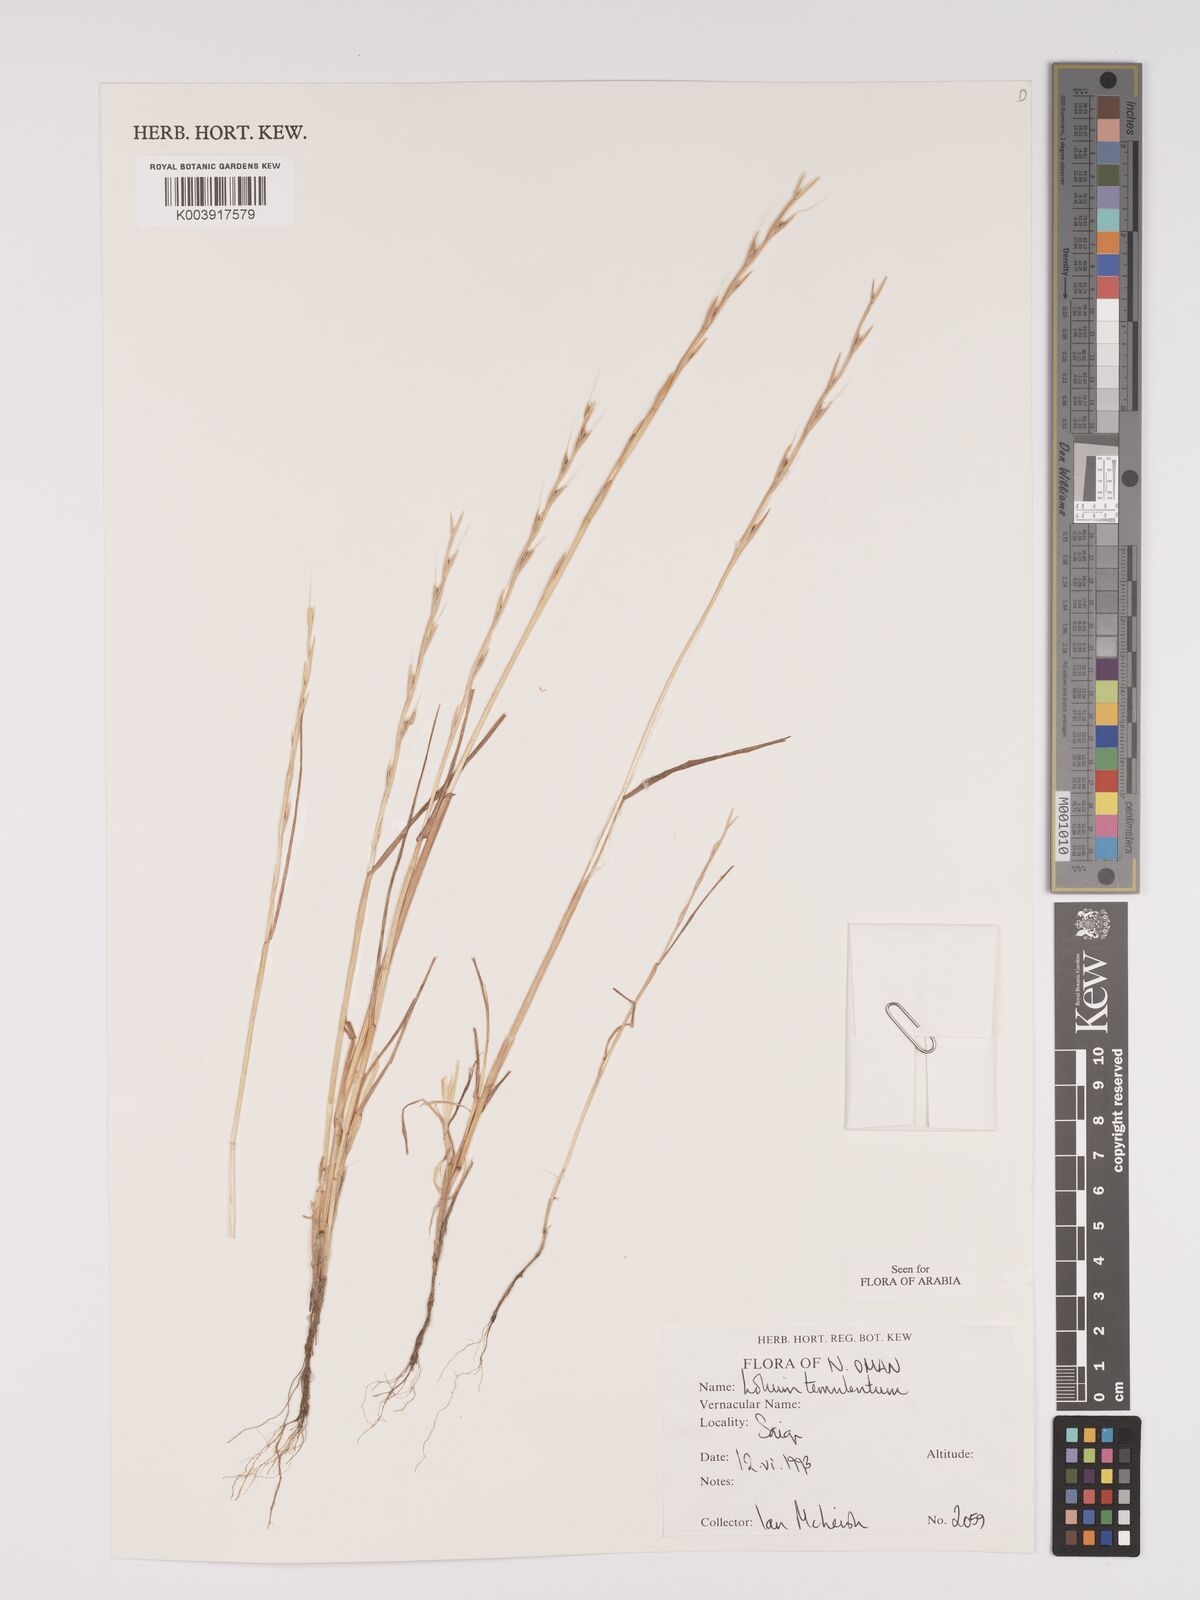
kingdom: Plantae
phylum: Tracheophyta
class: Liliopsida
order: Poales
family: Poaceae
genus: Lolium
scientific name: Lolium temulentum
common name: Darnel
